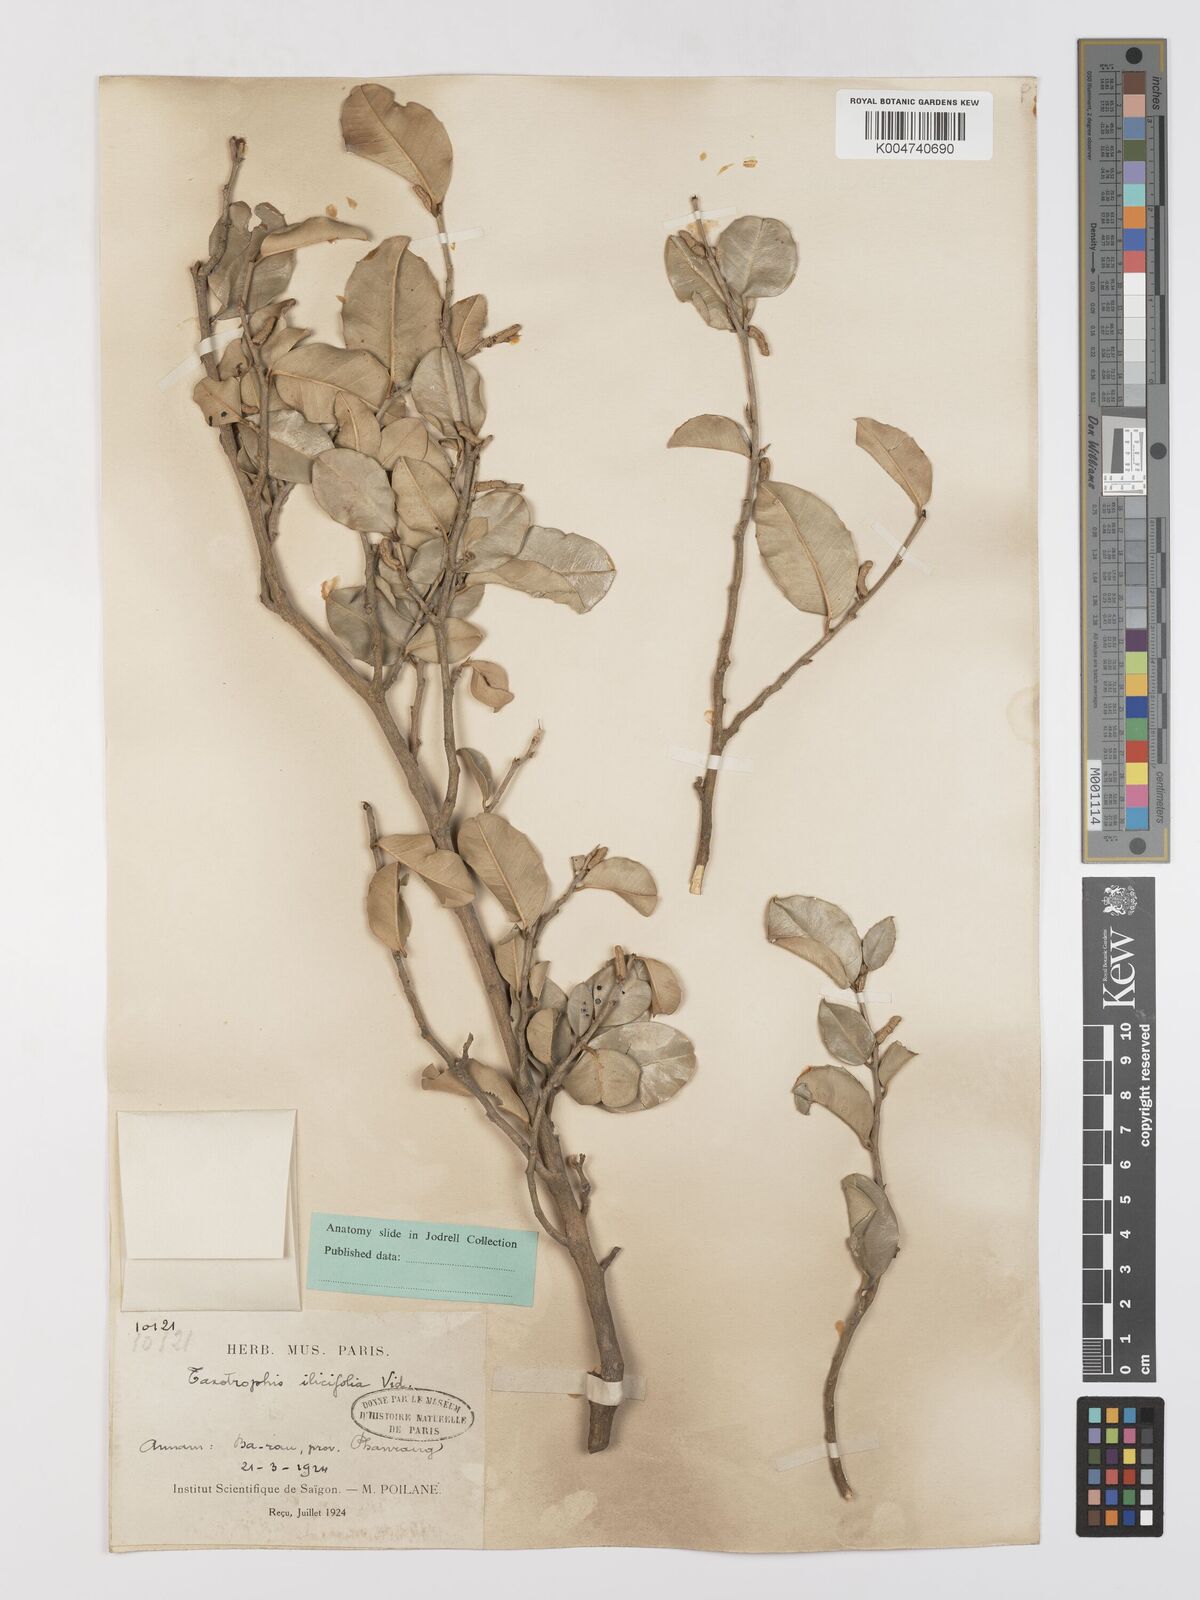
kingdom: Plantae
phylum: Tracheophyta
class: Magnoliopsida
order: Rosales
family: Moraceae
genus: Taxotrophis
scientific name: Taxotrophis ilicifolia
